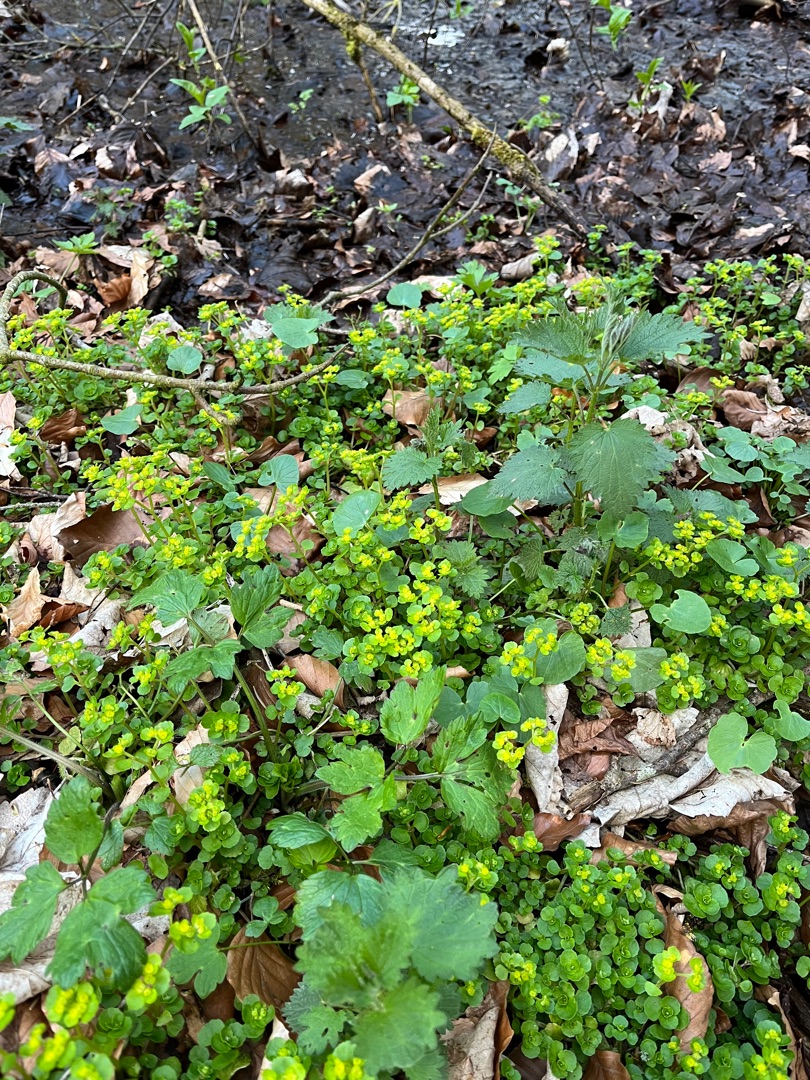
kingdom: Plantae
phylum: Tracheophyta
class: Magnoliopsida
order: Saxifragales
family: Saxifragaceae
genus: Chrysosplenium
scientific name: Chrysosplenium oppositifolium
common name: Småbladet milturt
